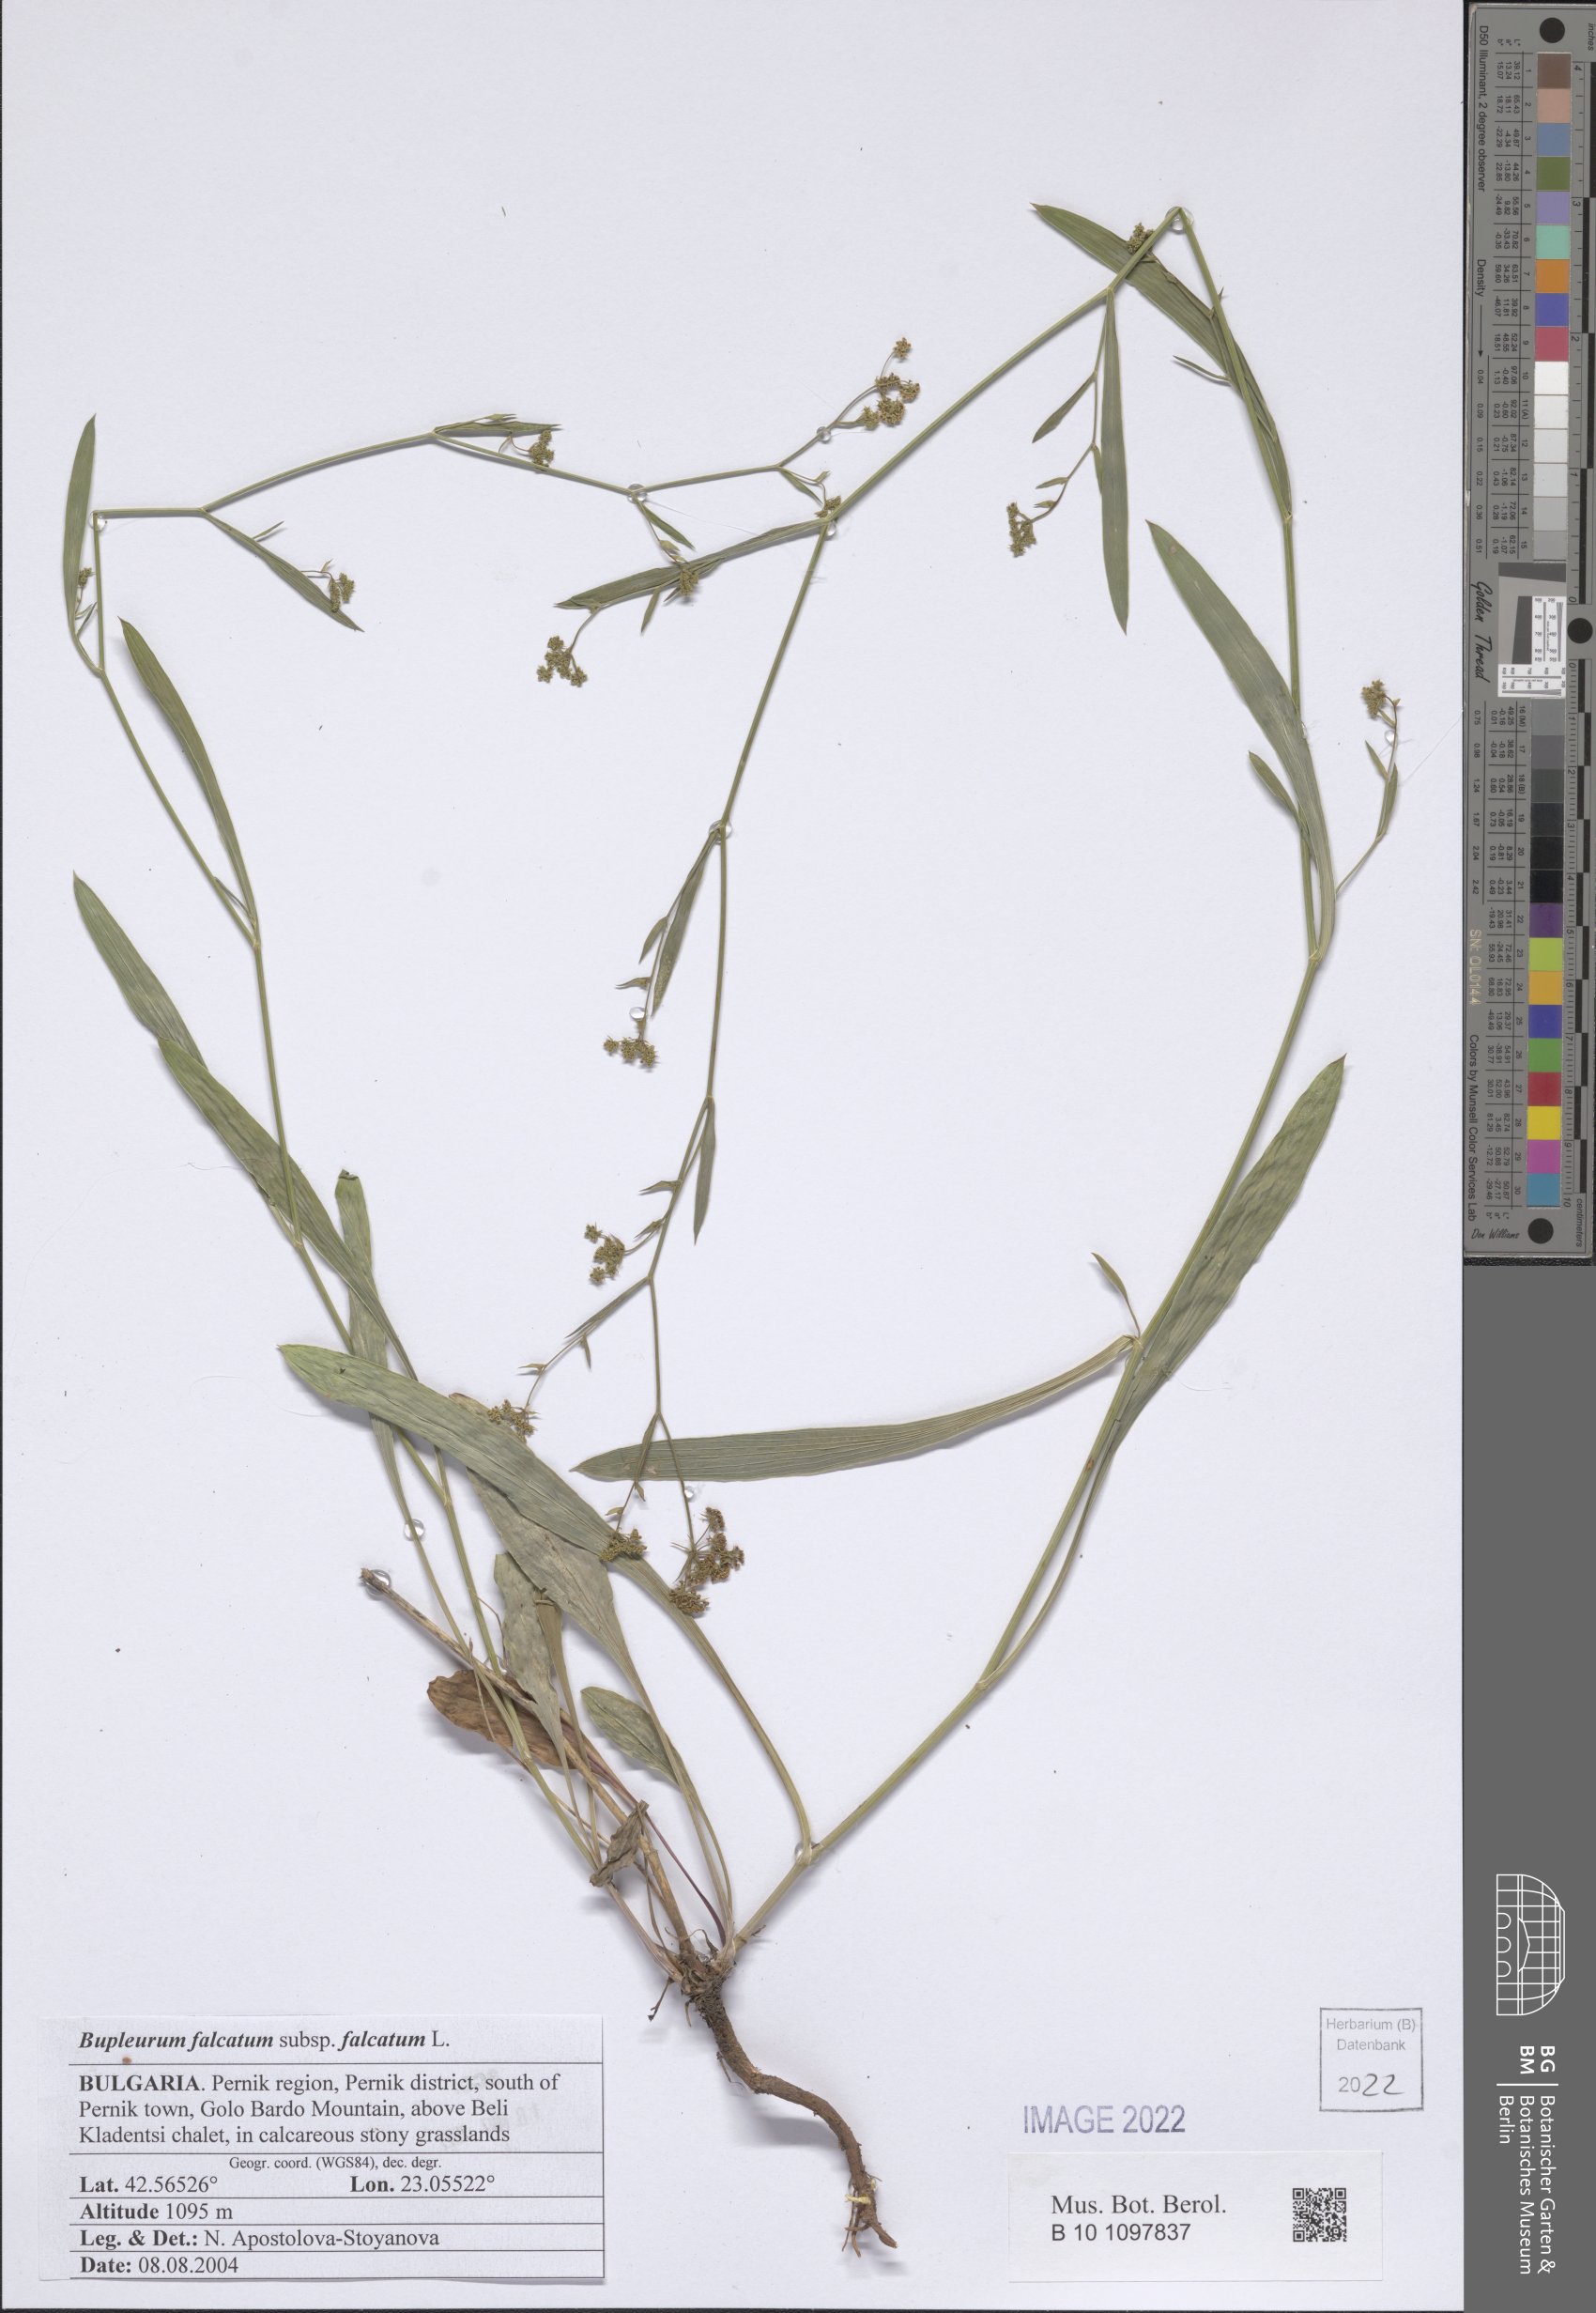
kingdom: Plantae
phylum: Tracheophyta
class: Magnoliopsida
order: Apiales
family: Apiaceae
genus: Bupleurum
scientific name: Bupleurum falcatum
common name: Sickle-leaved hare's-ear
